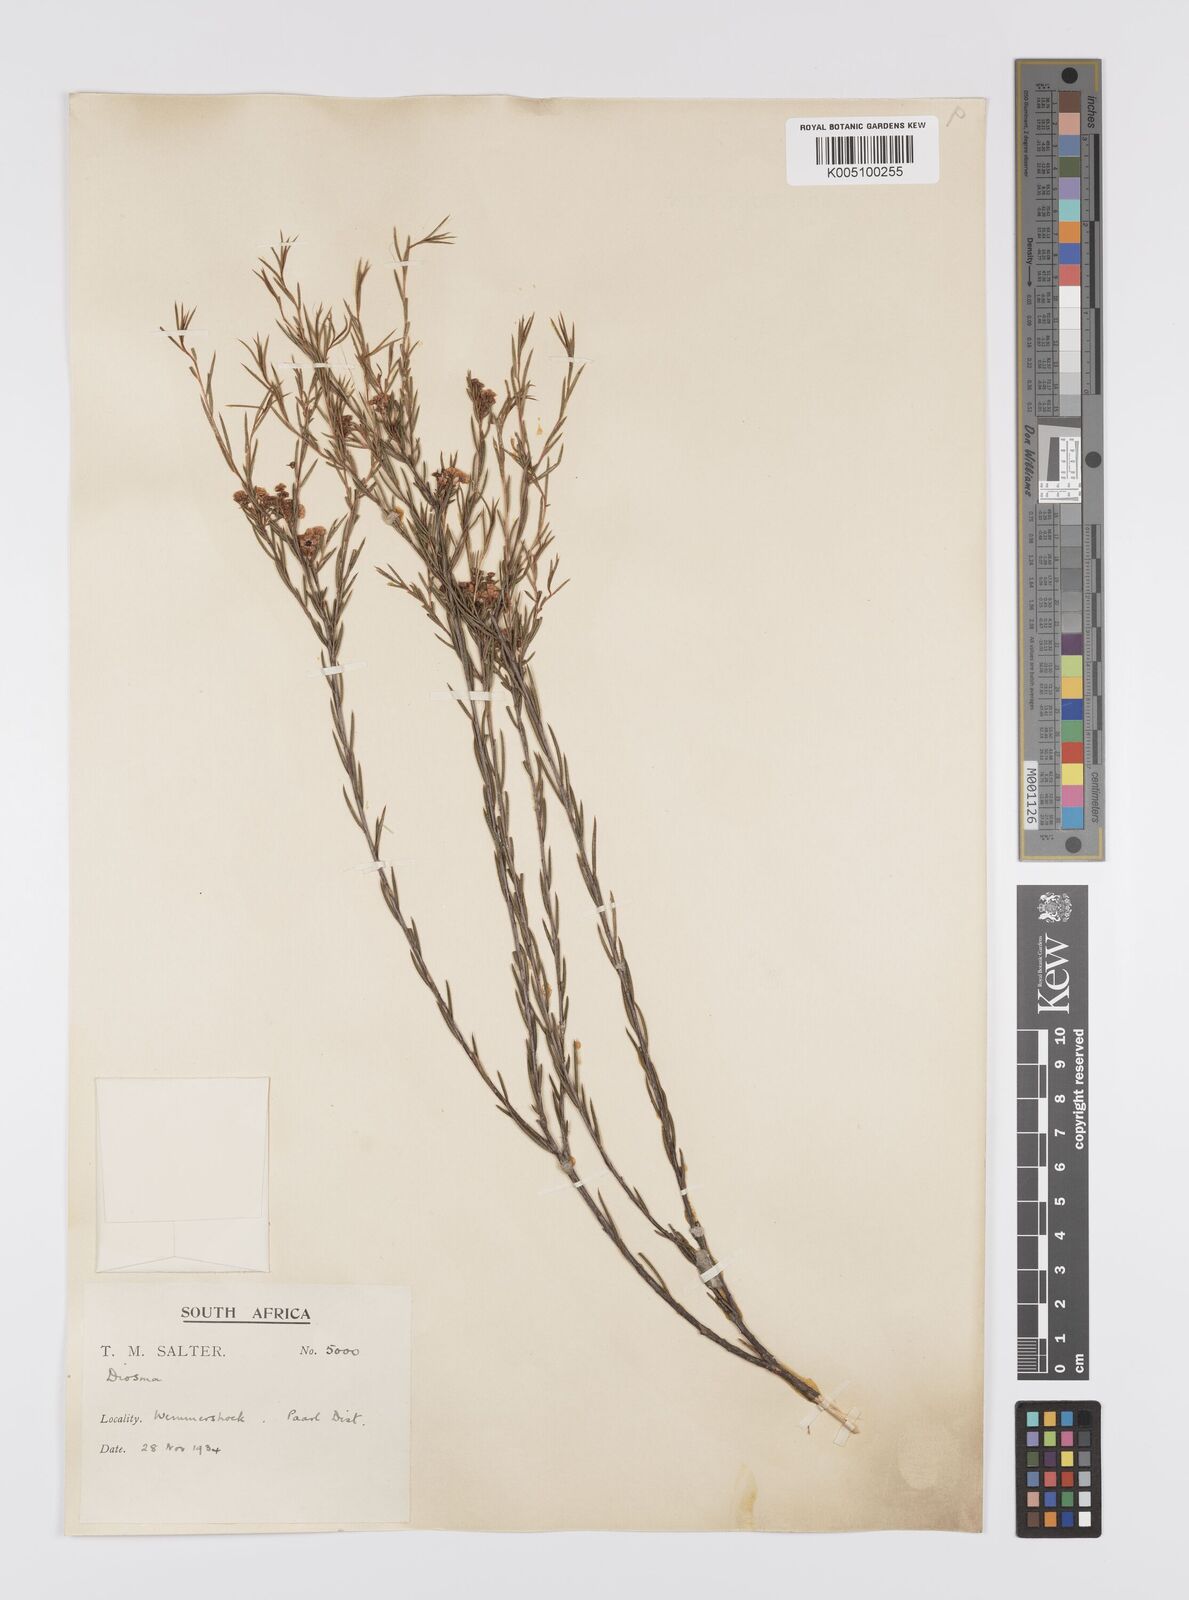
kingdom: Plantae
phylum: Tracheophyta
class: Magnoliopsida
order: Sapindales
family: Rutaceae
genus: Diosma
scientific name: Diosma hirsuta
